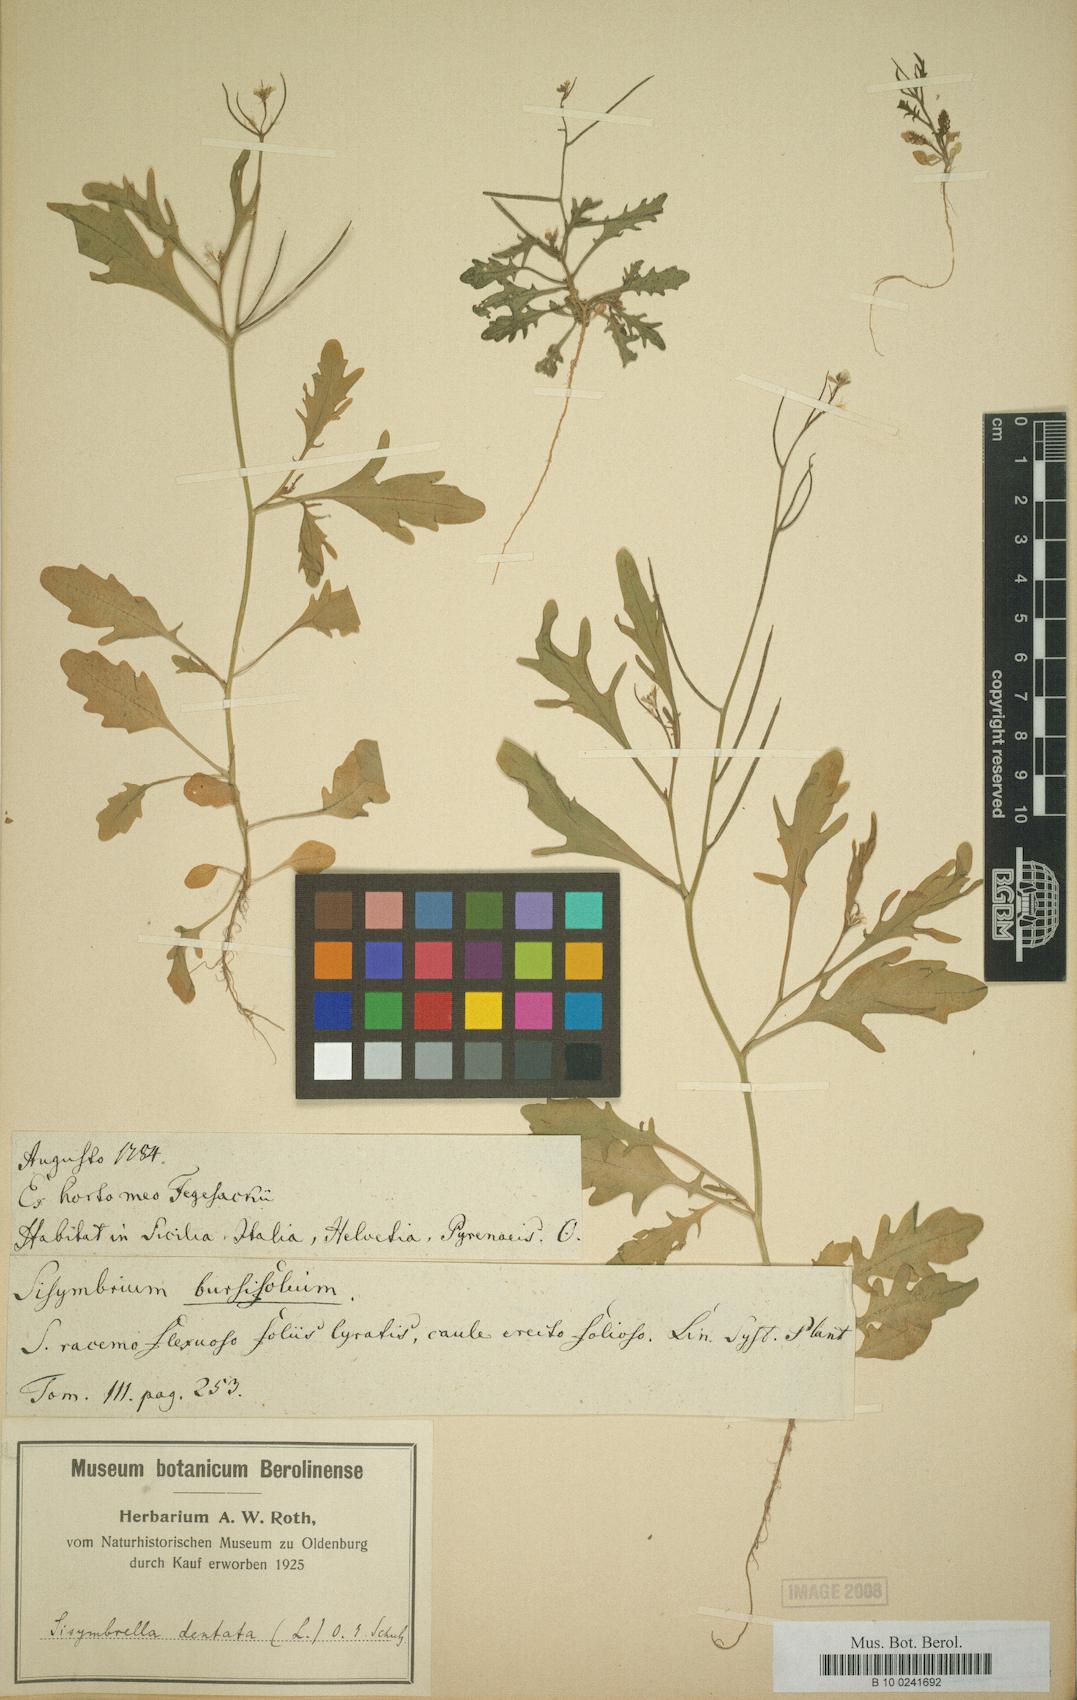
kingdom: Plantae
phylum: Tracheophyta
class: Magnoliopsida
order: Brassicales
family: Brassicaceae
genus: Borodinia
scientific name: Borodinia dentata
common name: Short's rockcress
